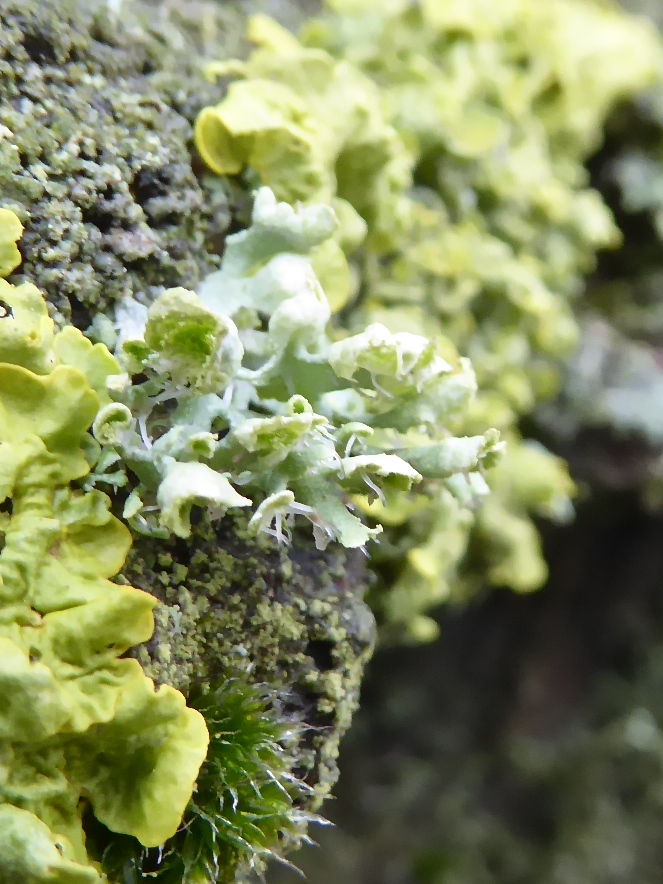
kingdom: Fungi
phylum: Ascomycota
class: Lecanoromycetes
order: Caliciales
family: Physciaceae
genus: Physcia
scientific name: Physcia adscendens
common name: hætte-rosetlav
